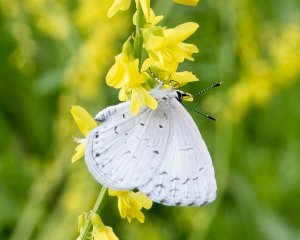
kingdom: Animalia
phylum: Arthropoda
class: Insecta
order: Lepidoptera
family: Lycaenidae
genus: Celastrina
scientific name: Celastrina ladon
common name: Spring Azure
